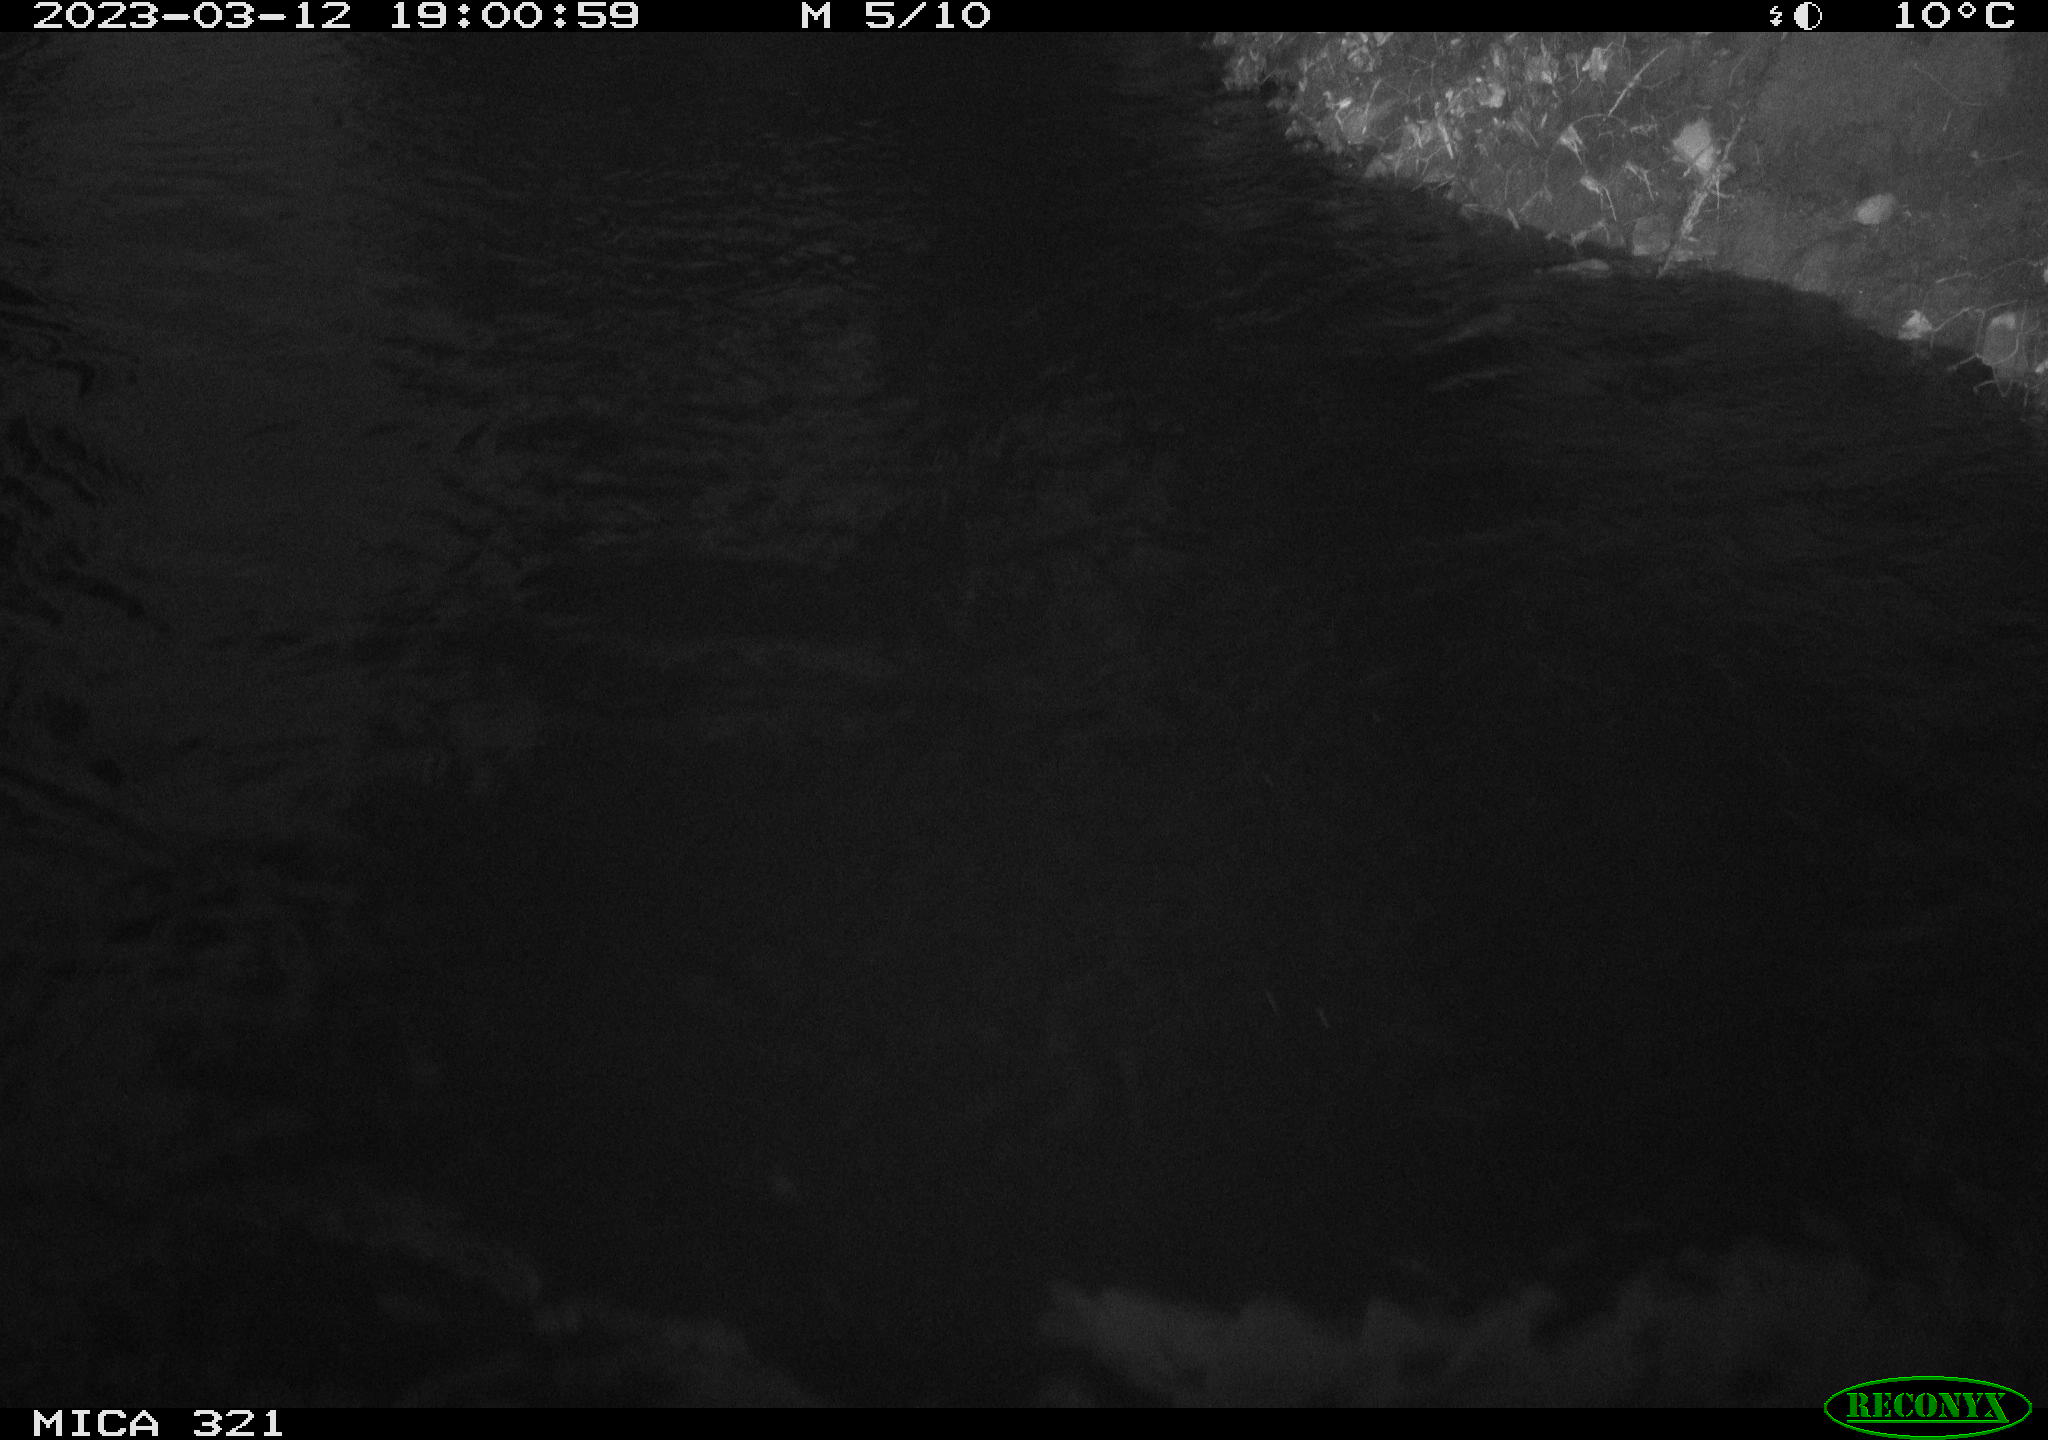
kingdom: Animalia
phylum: Chordata
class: Aves
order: Anseriformes
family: Anatidae
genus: Anas
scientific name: Anas
